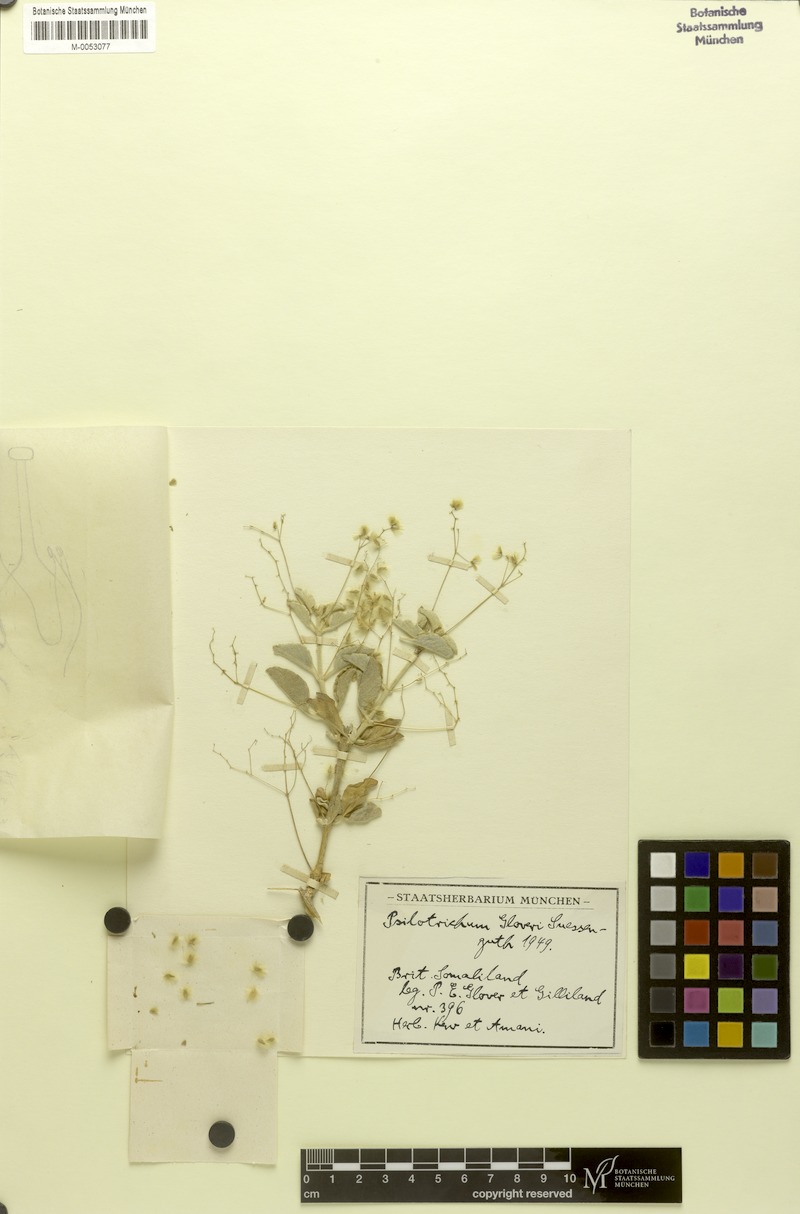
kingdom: Plantae
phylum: Tracheophyta
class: Magnoliopsida
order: Caryophyllales
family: Amaranthaceae
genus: Psilotrichum
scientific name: Psilotrichum gloveri
